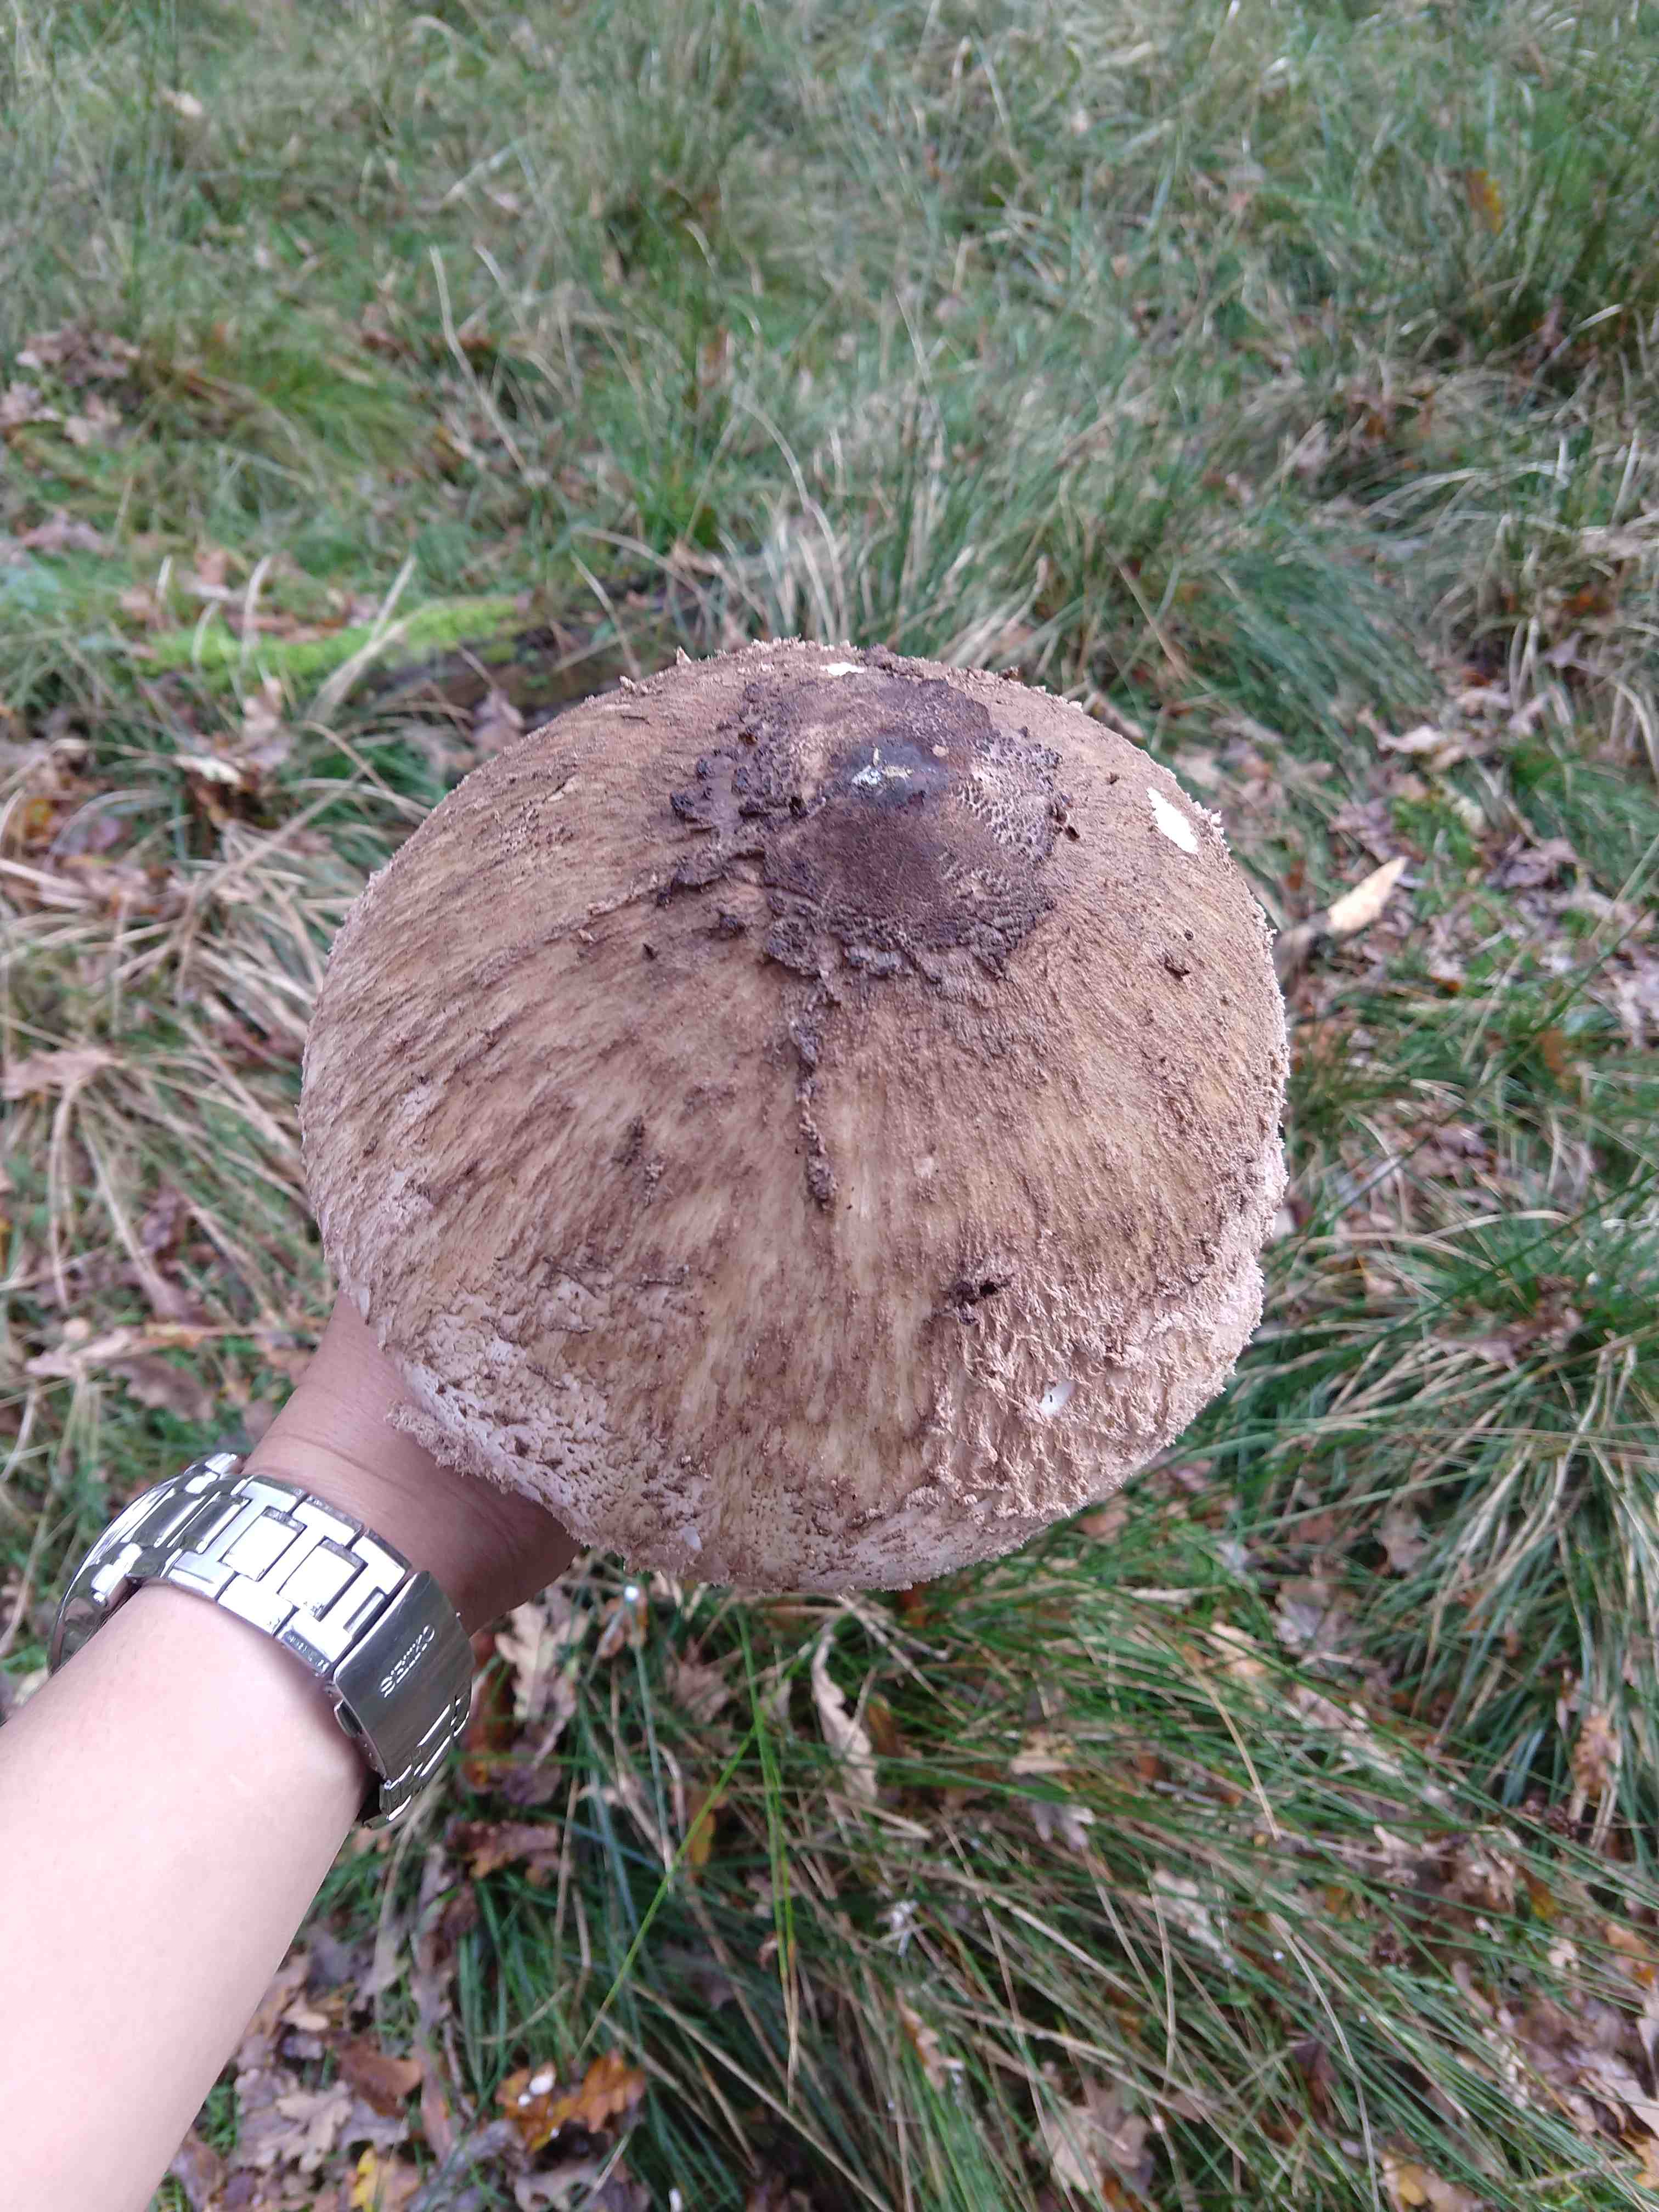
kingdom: Fungi
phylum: Basidiomycota
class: Agaricomycetes
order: Agaricales
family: Agaricaceae
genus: Macrolepiota
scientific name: Macrolepiota procera
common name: stor kæmpeparasolhat
